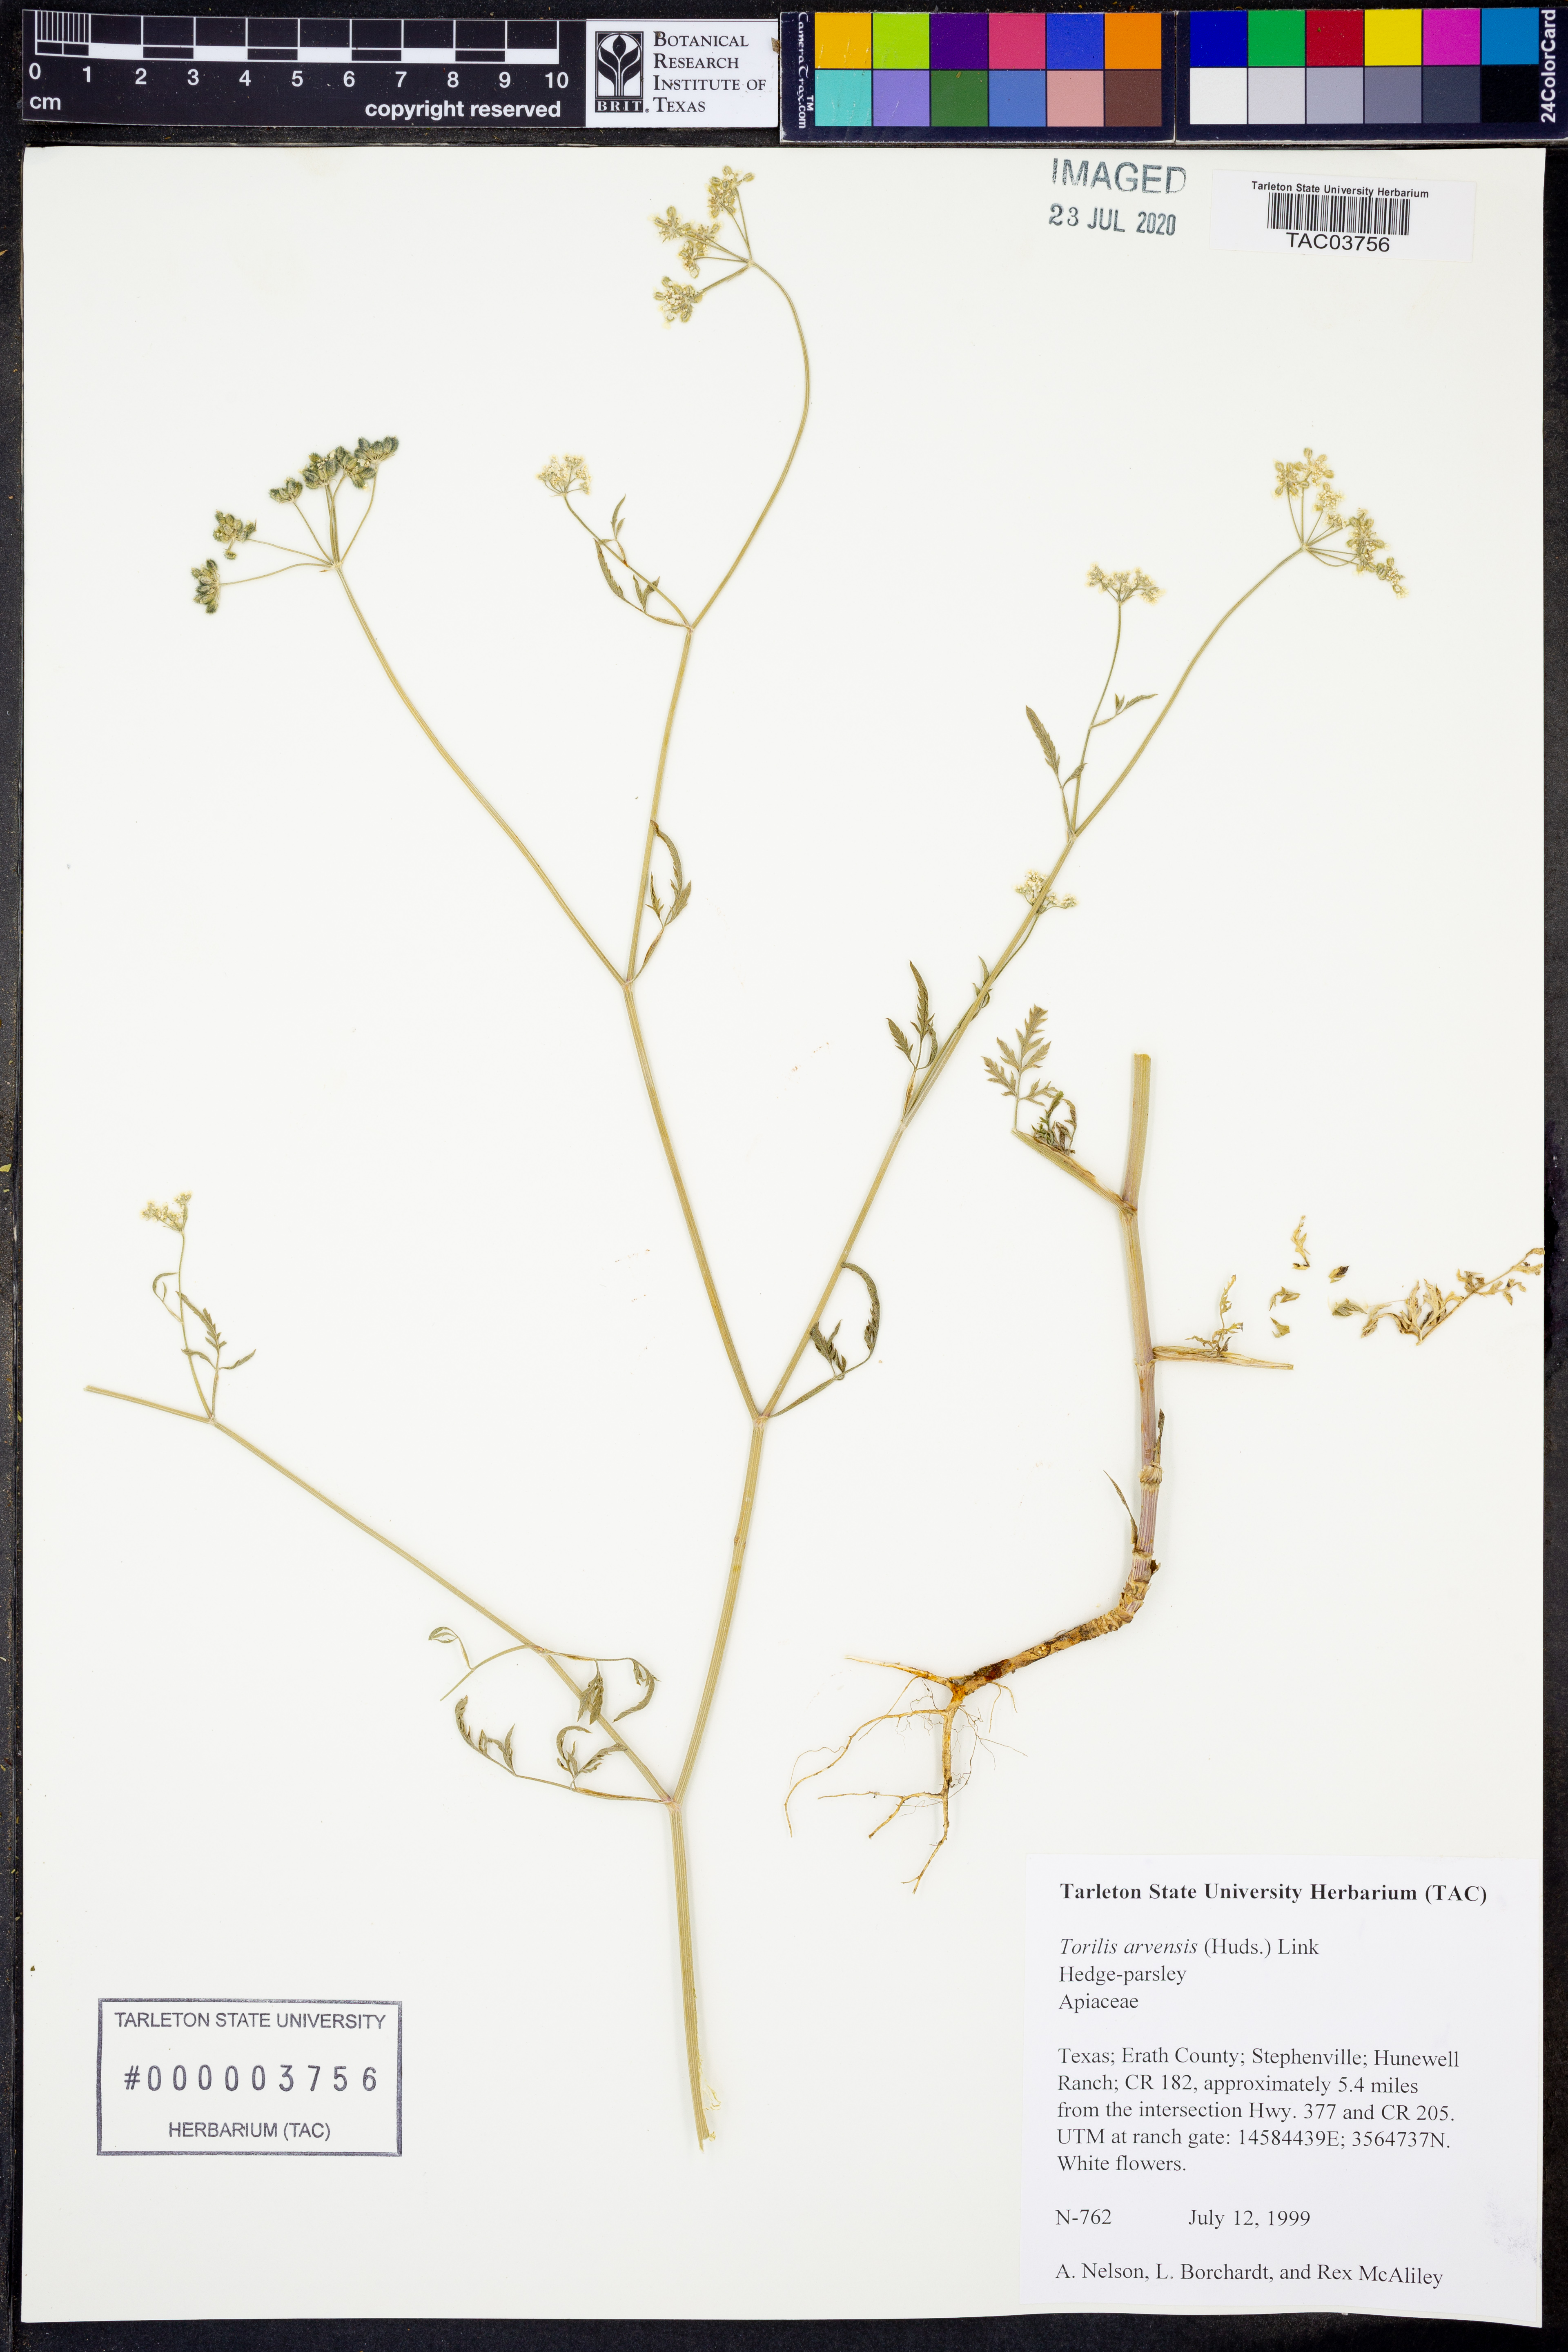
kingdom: Plantae
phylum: Tracheophyta
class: Magnoliopsida
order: Apiales
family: Apiaceae
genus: Torilis
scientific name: Torilis arvensis
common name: Spreading hedge-parsley
